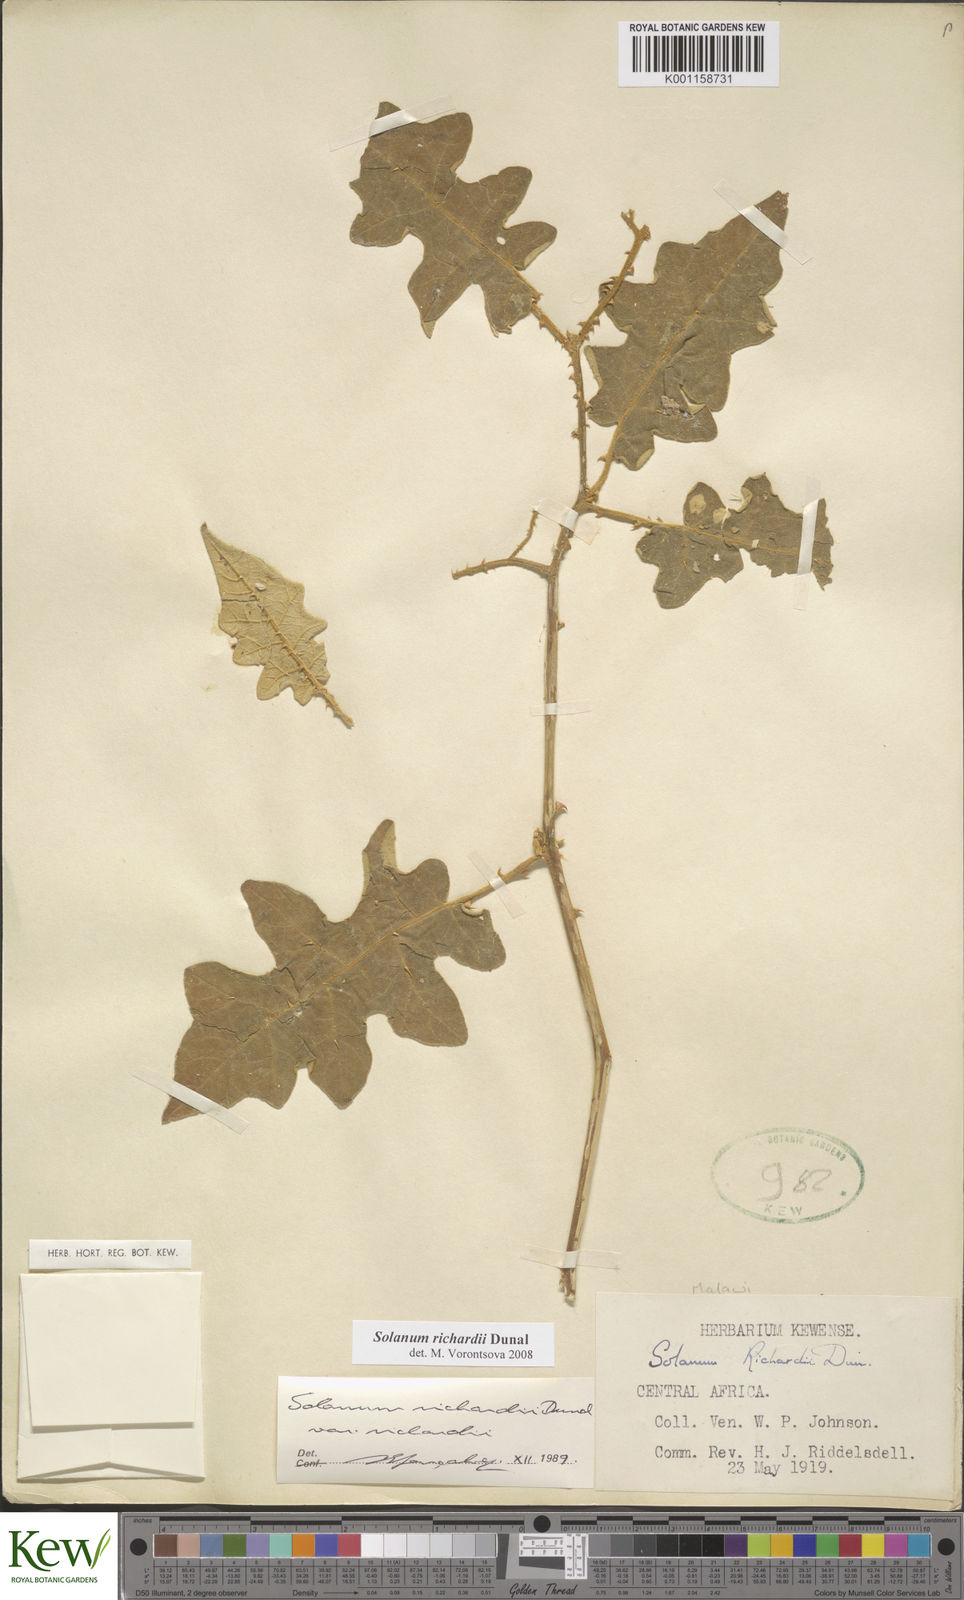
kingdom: Plantae
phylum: Tracheophyta
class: Magnoliopsida
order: Solanales
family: Solanaceae
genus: Solanum
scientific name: Solanum richardii
